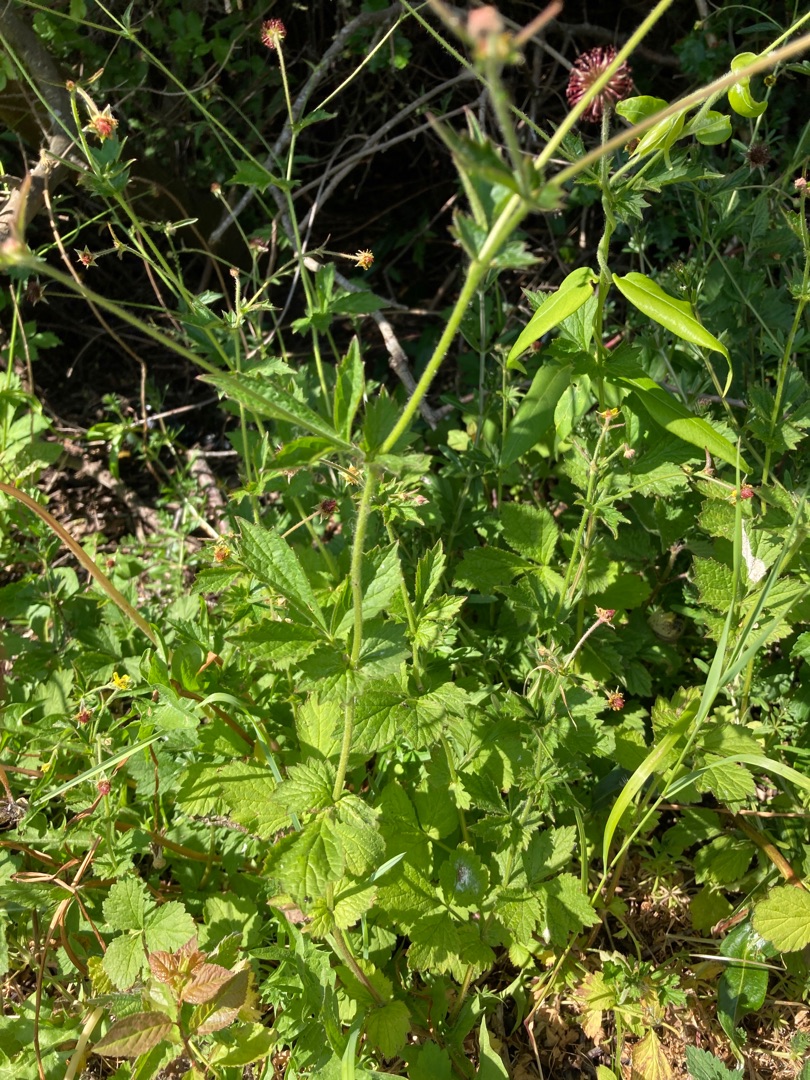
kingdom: Plantae
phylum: Tracheophyta
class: Magnoliopsida
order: Rosales
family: Rosaceae
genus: Geum
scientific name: Geum urbanum
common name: Feber-nellikerod
